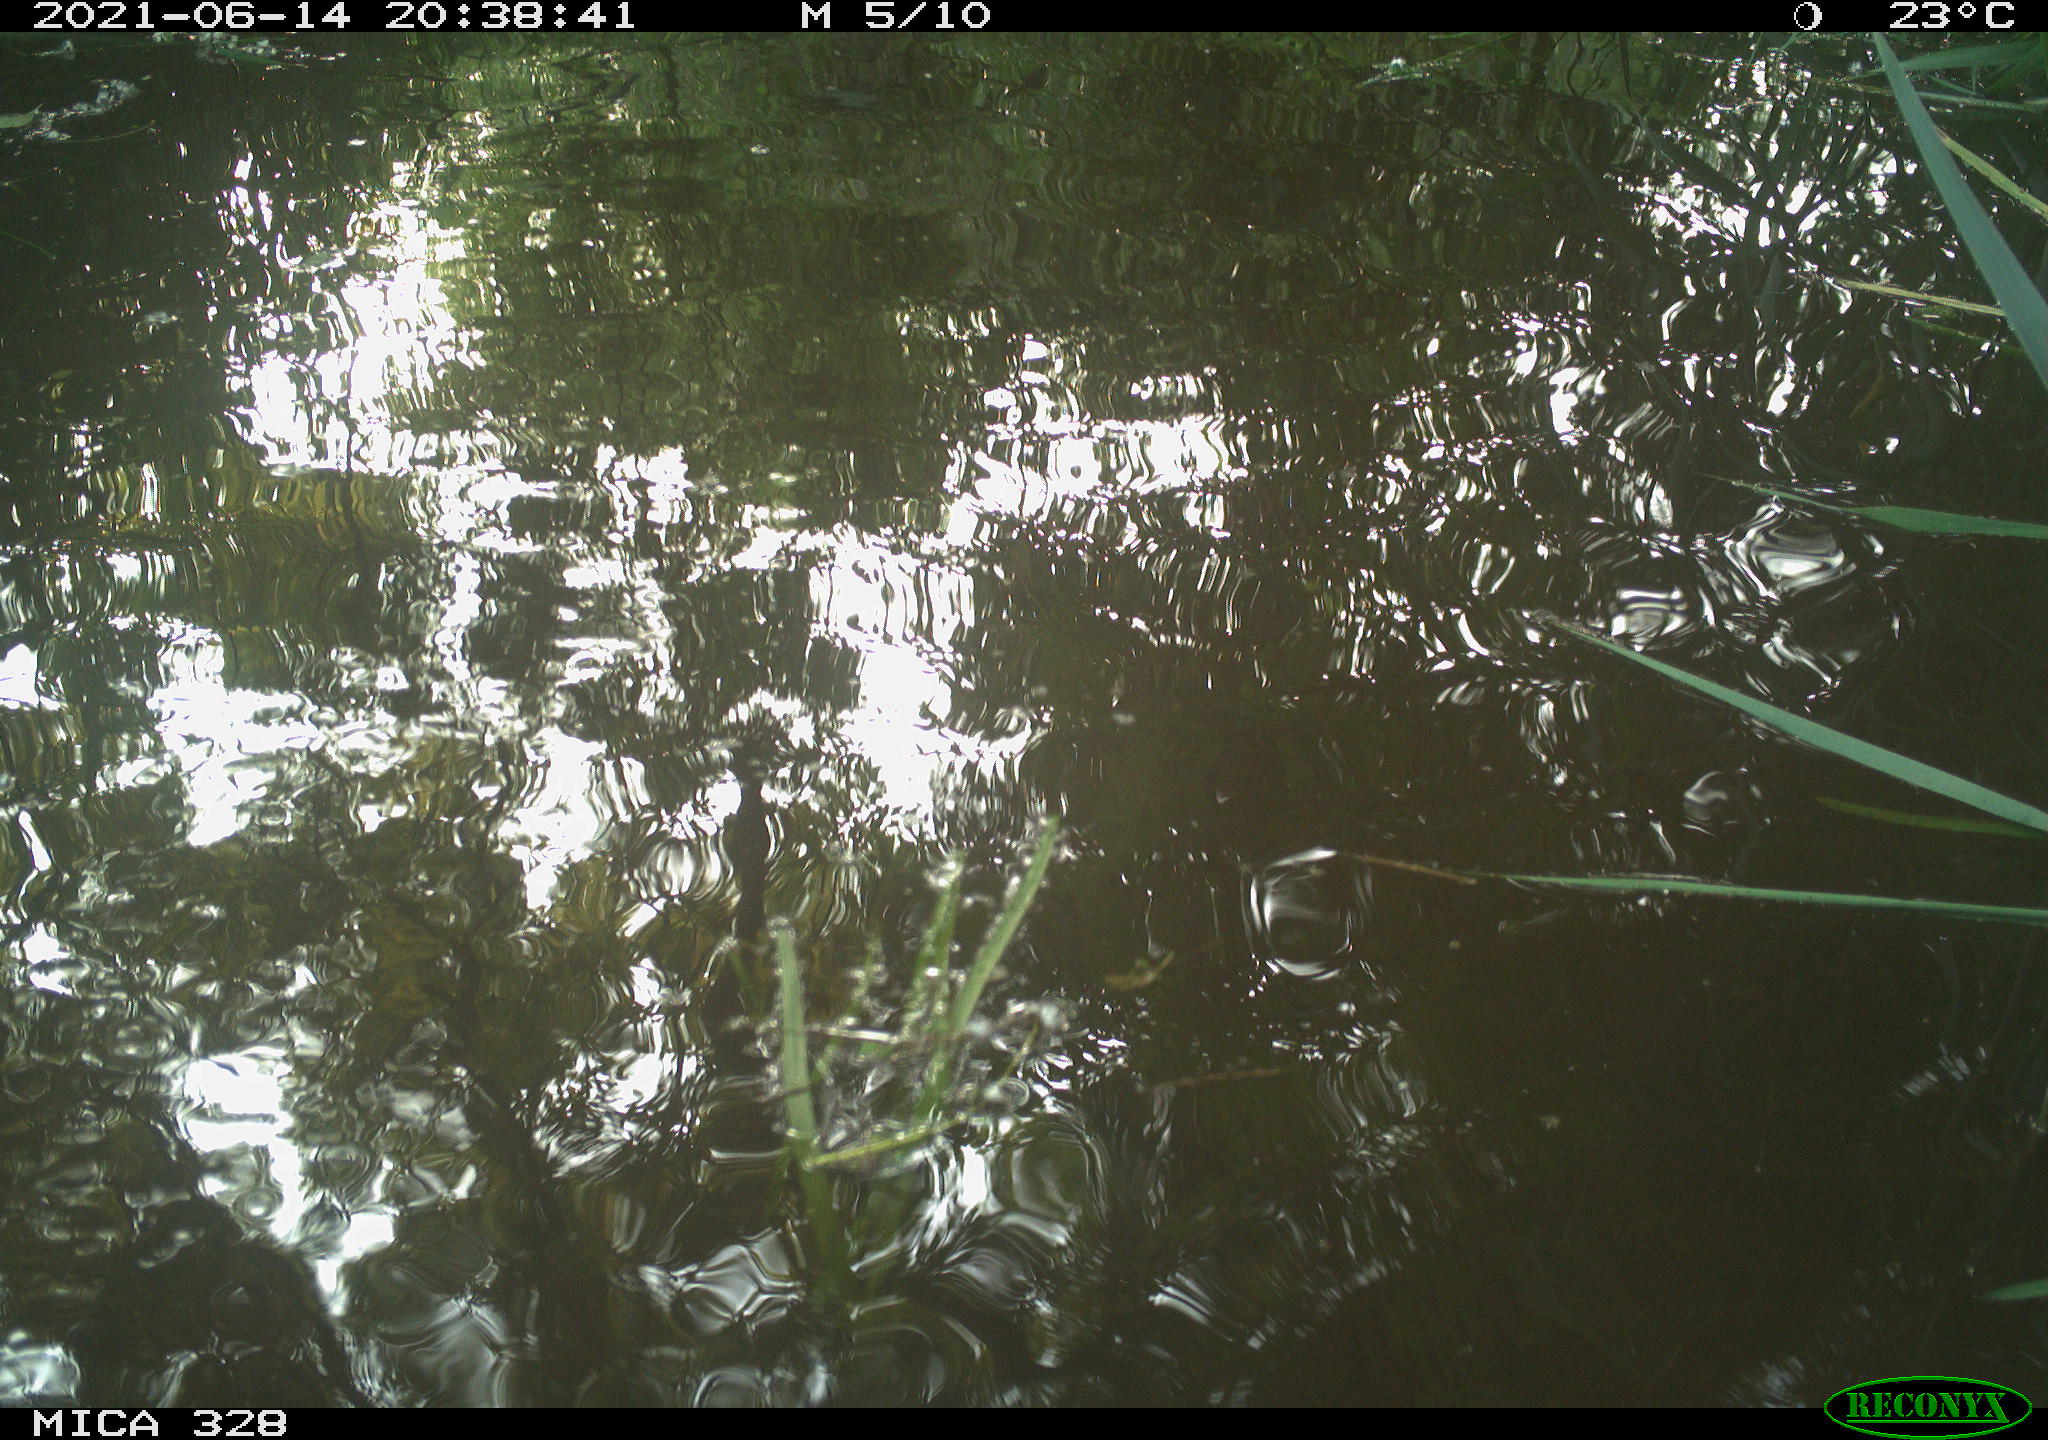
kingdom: Animalia
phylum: Chordata
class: Aves
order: Anseriformes
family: Anatidae
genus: Aix
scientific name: Aix galericulata
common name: Mandarin duck
